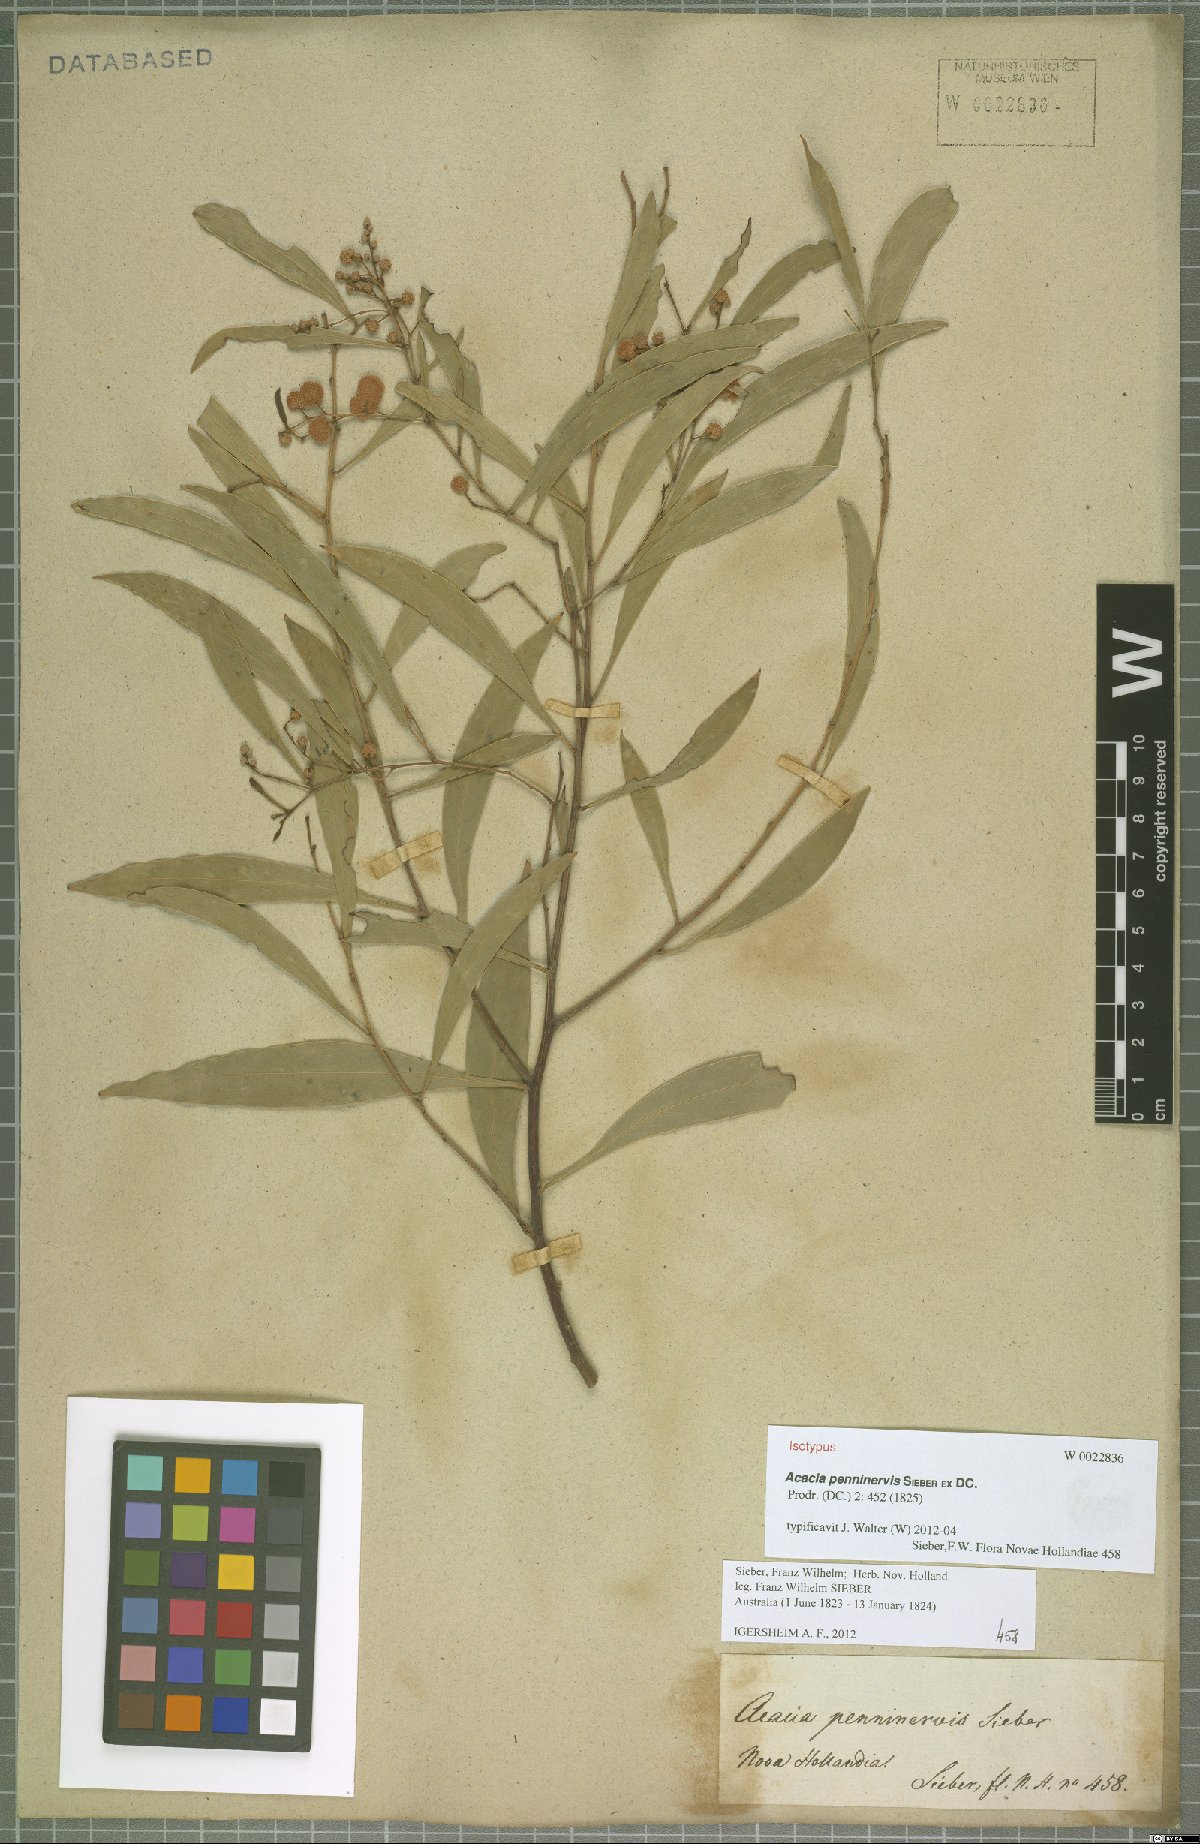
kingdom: Plantae
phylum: Tracheophyta
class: Magnoliopsida
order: Fabales
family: Fabaceae
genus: Acacia
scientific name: Acacia penninervis
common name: Hickory wattle
